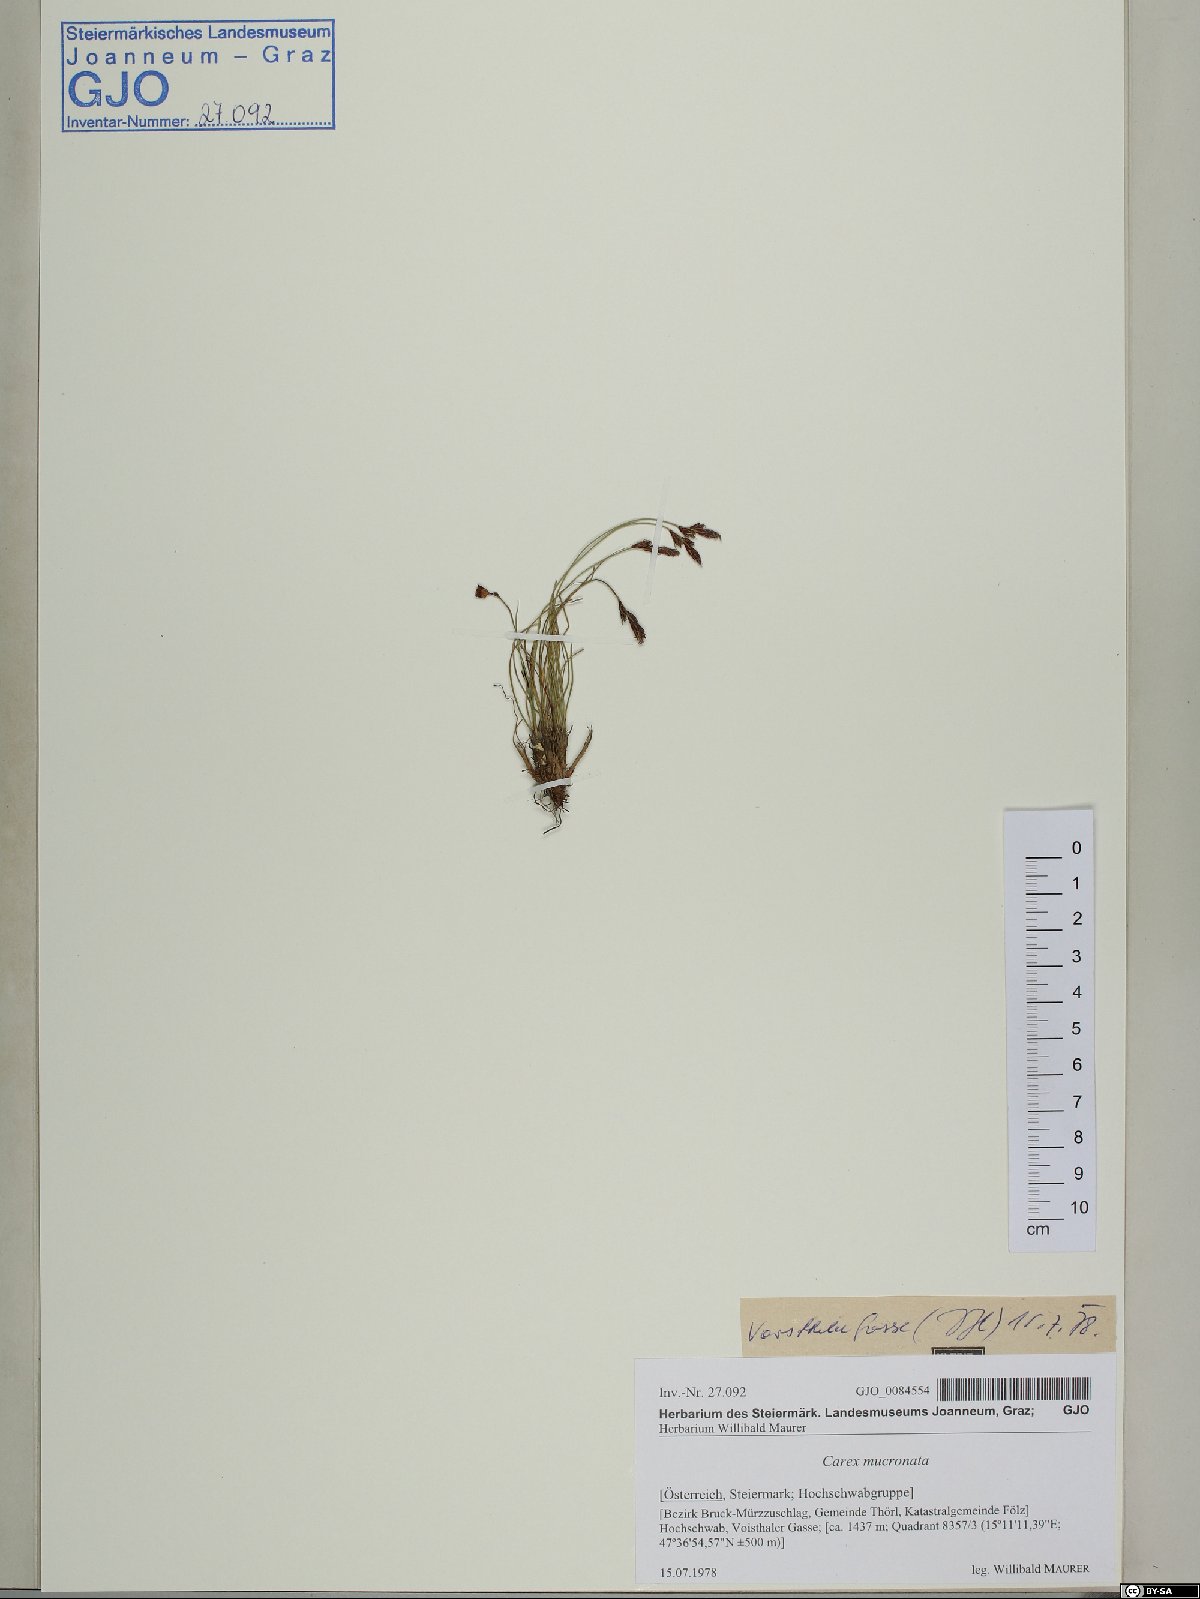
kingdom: Plantae
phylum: Tracheophyta
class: Liliopsida
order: Poales
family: Cyperaceae
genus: Carex
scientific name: Carex mucronata
